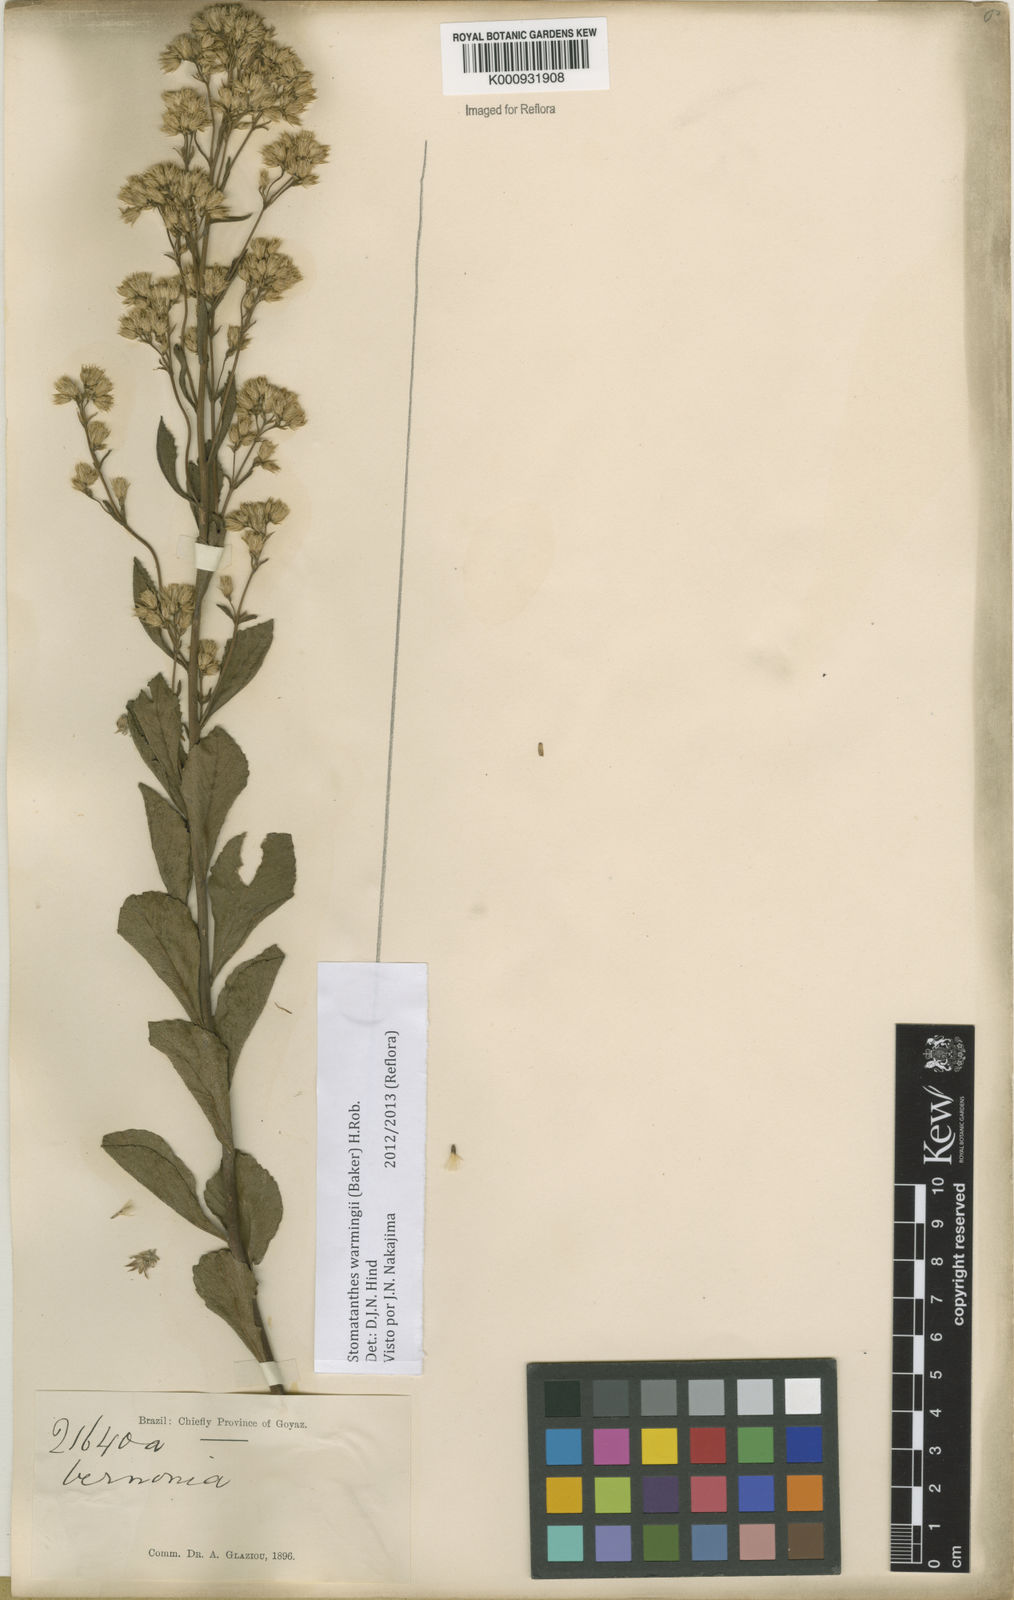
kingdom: Plantae
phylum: Tracheophyta
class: Magnoliopsida
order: Asterales
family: Asteraceae
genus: Stomatanthes
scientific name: Stomatanthes warmingii
